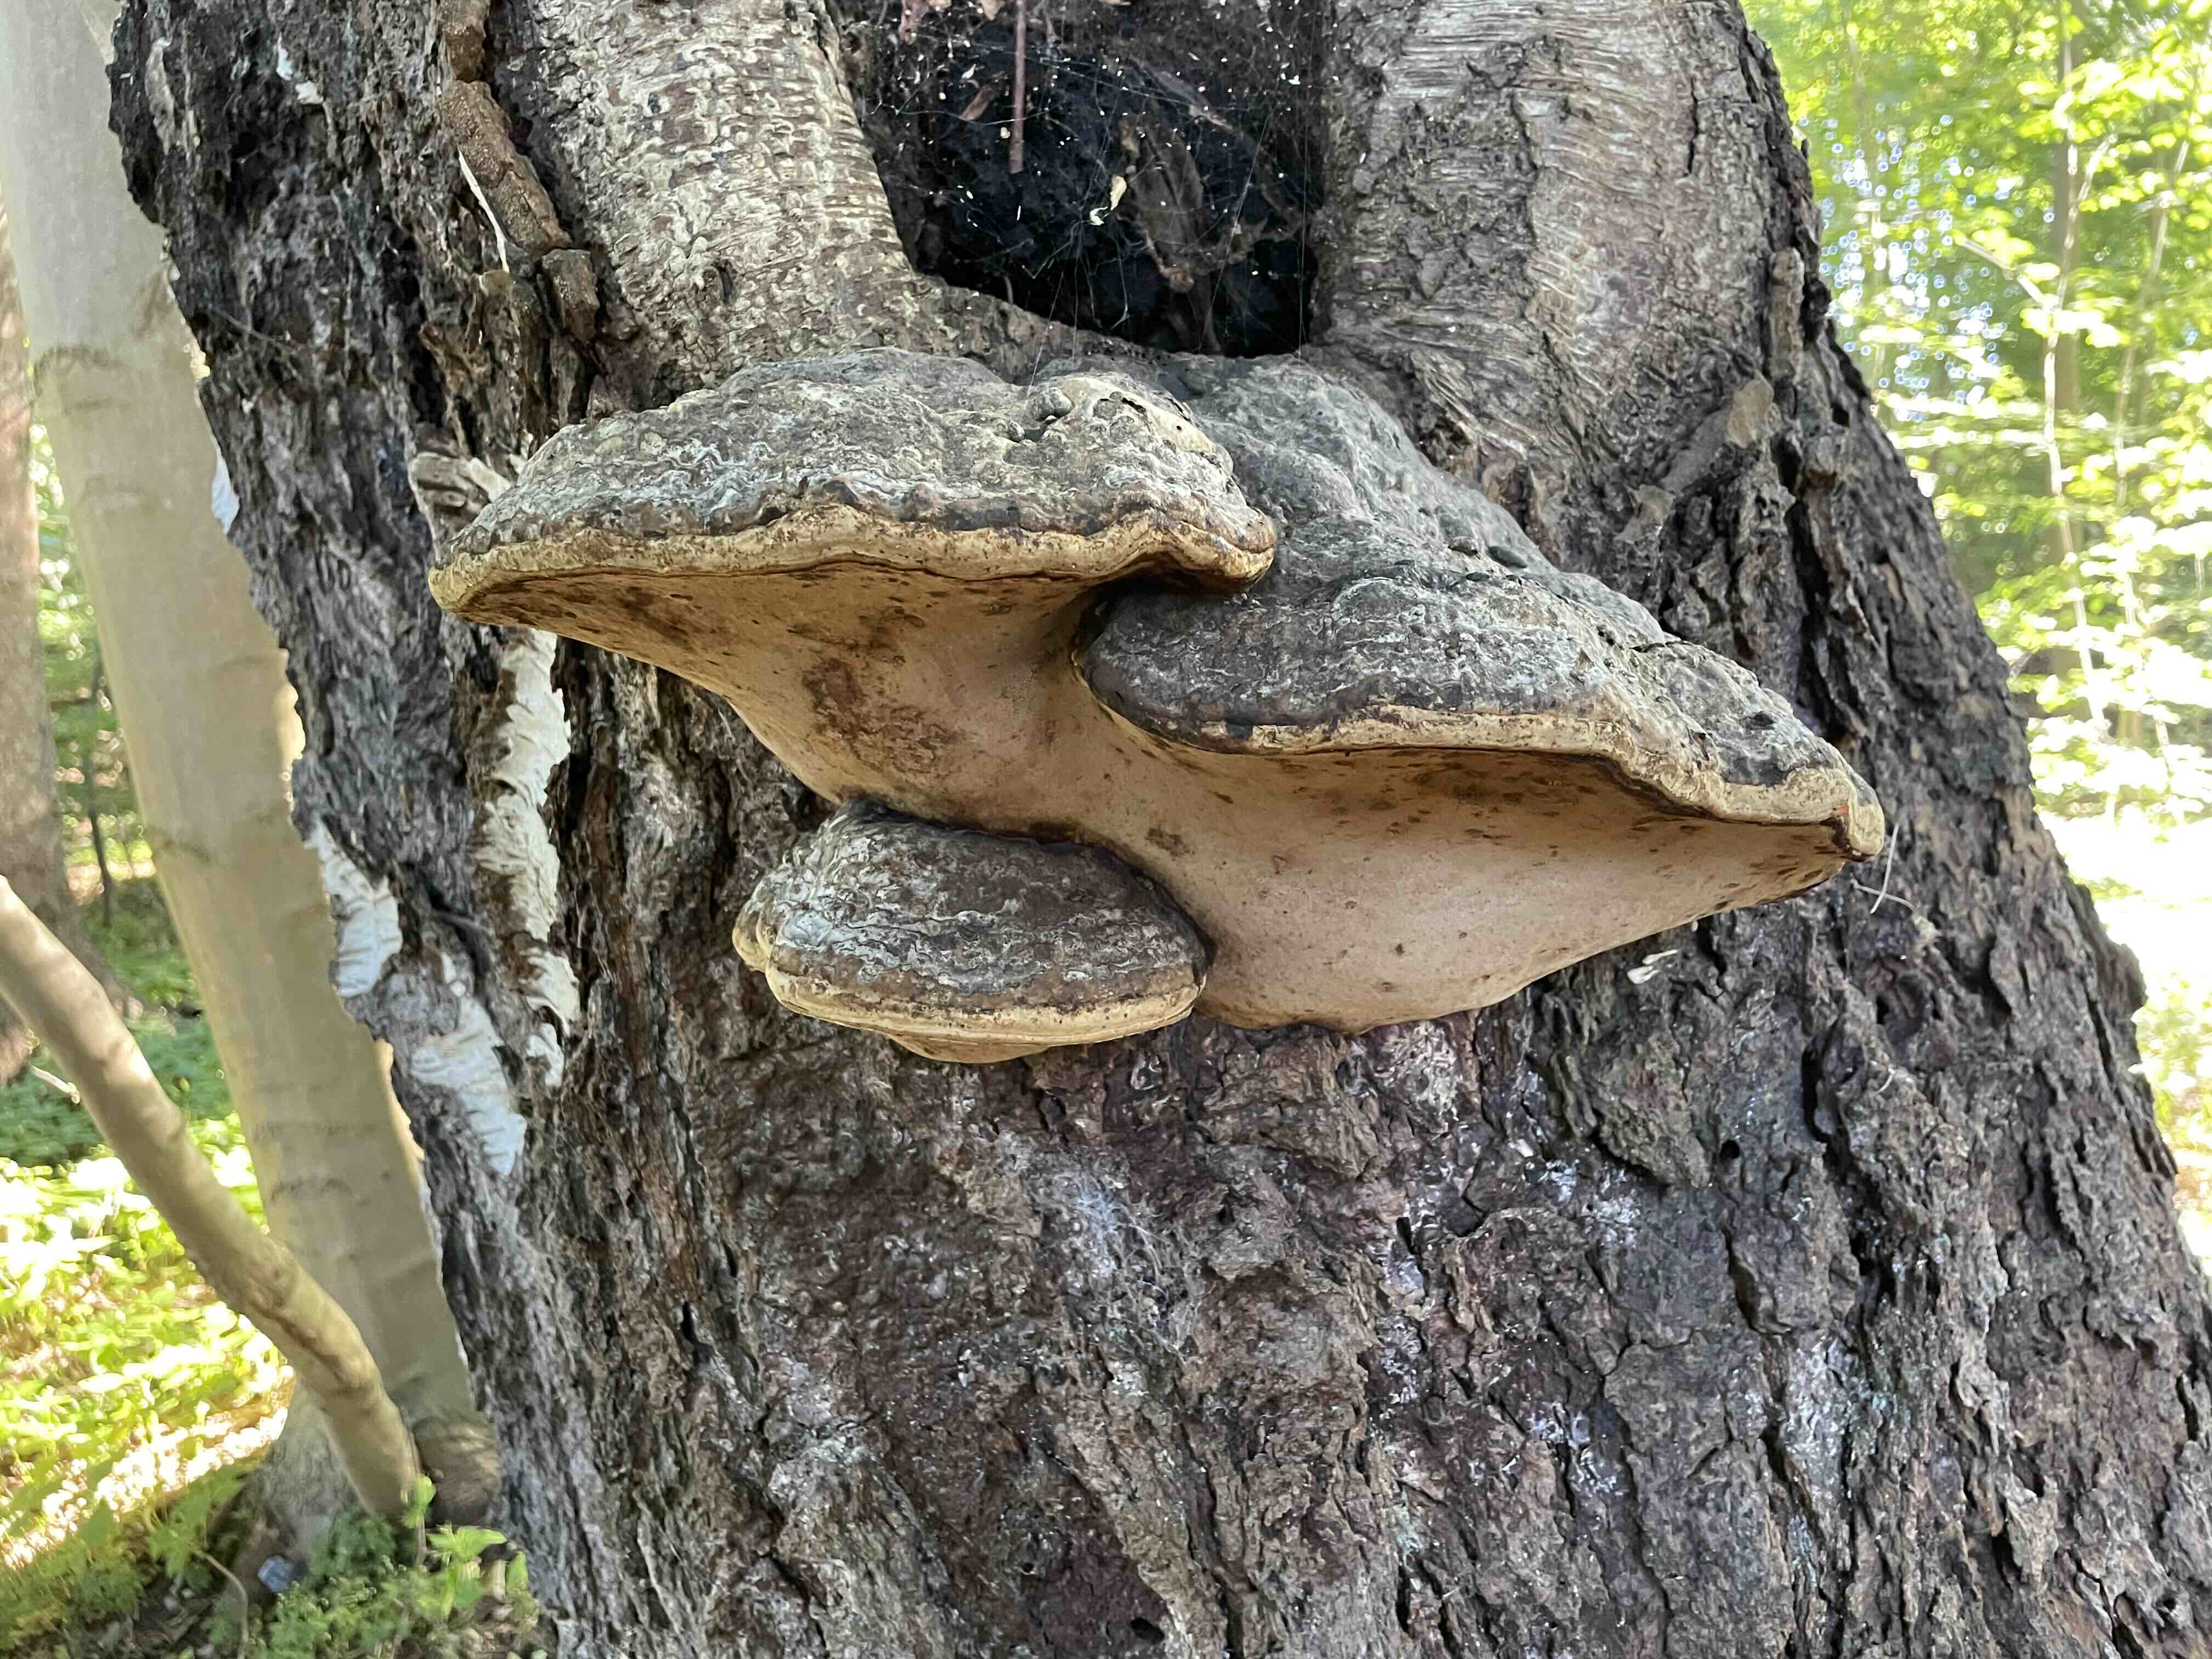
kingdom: Fungi
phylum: Basidiomycota
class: Agaricomycetes
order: Polyporales
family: Polyporaceae
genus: Fomes
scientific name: Fomes fomentarius
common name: tøndersvamp
